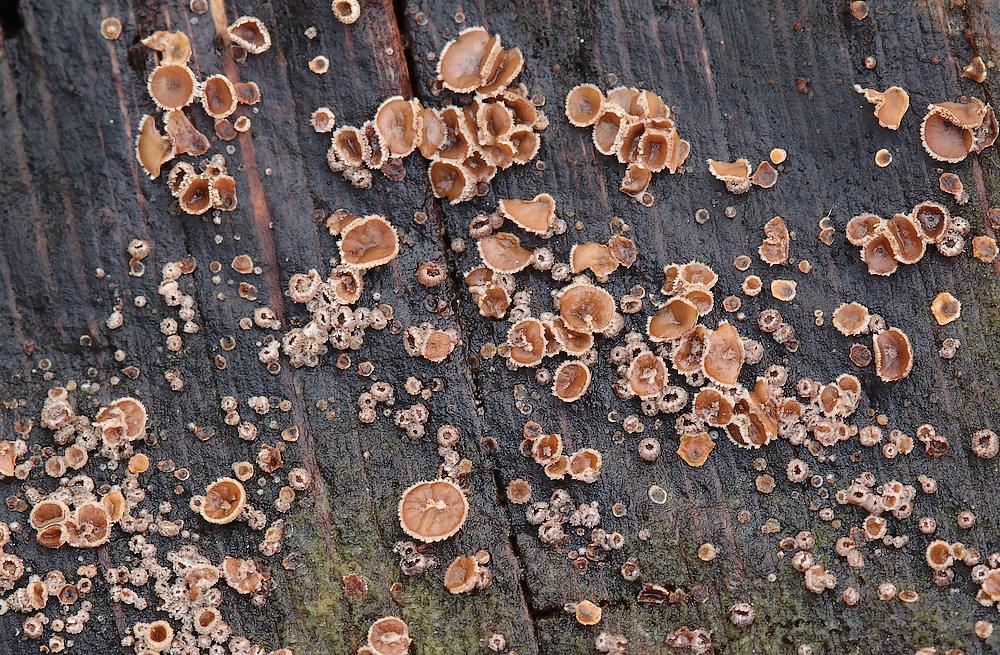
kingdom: Fungi
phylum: Ascomycota
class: Leotiomycetes
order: Helotiales
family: Hyaloscyphaceae
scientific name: Hyaloscyphaceae
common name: frynseskivefamilien
